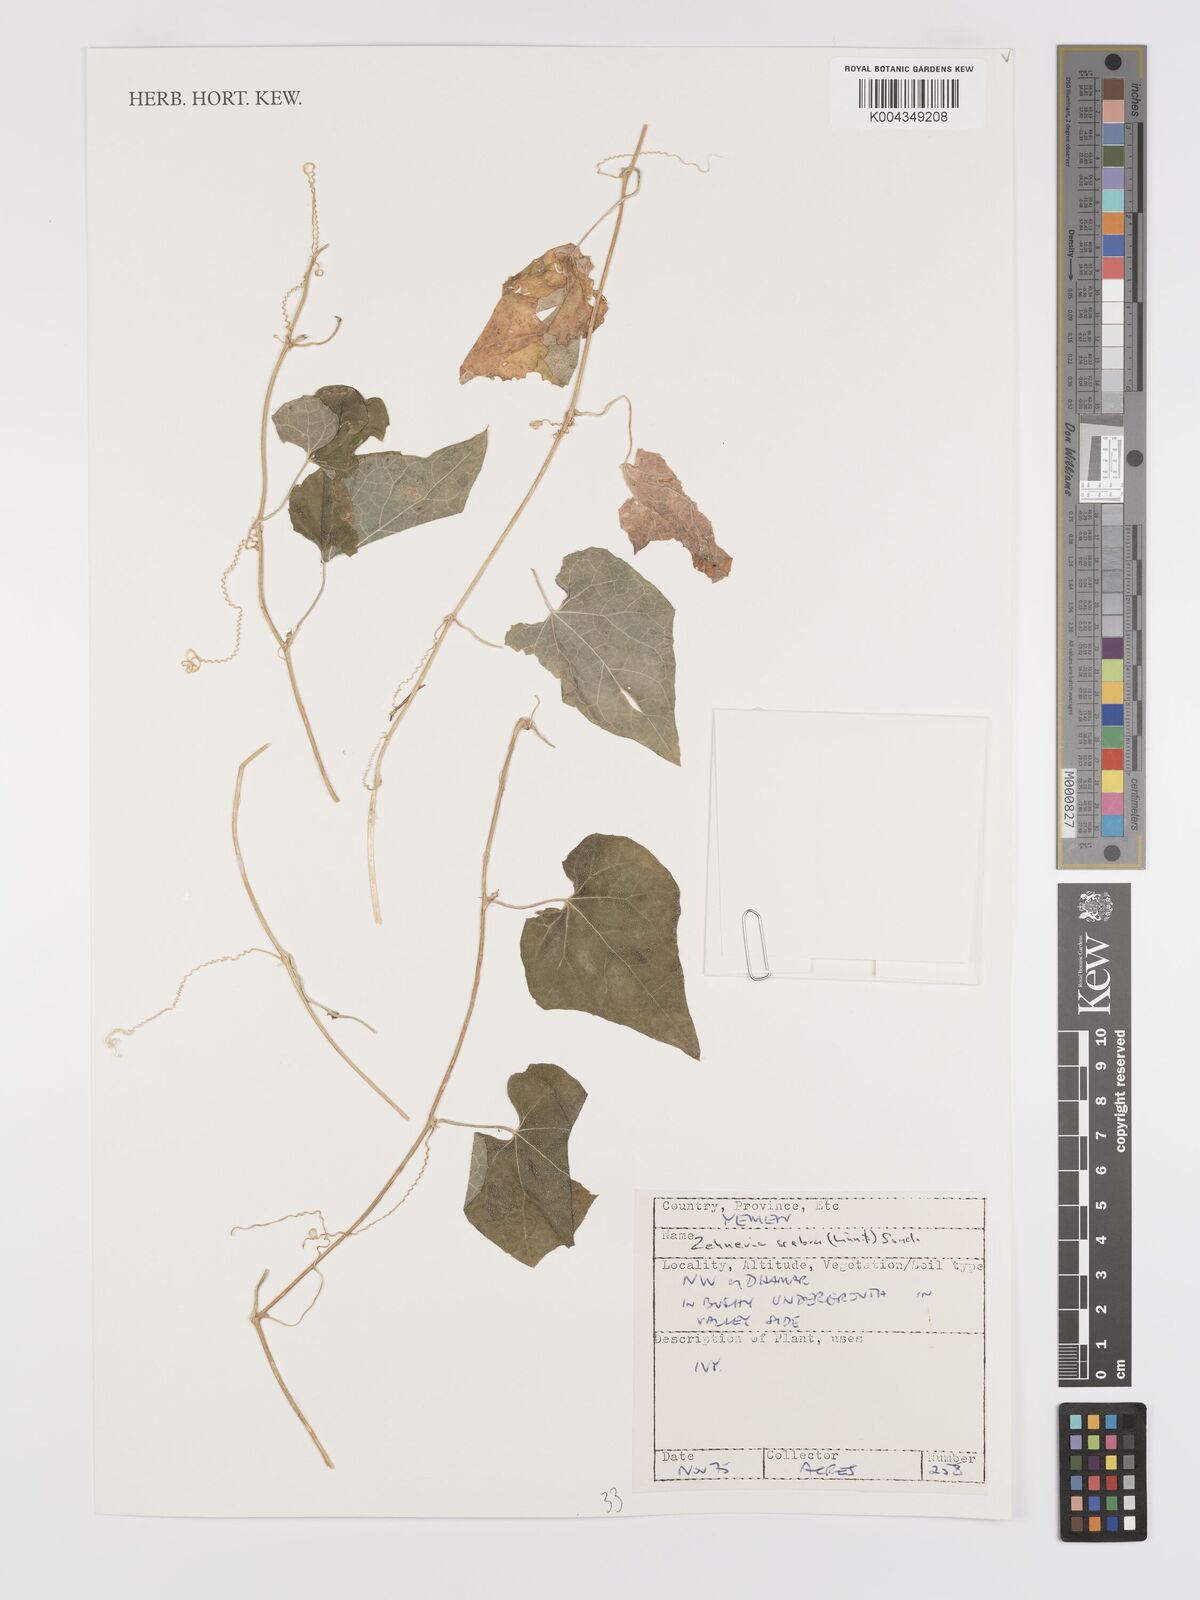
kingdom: Plantae
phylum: Tracheophyta
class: Magnoliopsida
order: Cucurbitales
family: Cucurbitaceae
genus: Zehneria
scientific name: Zehneria scabra
